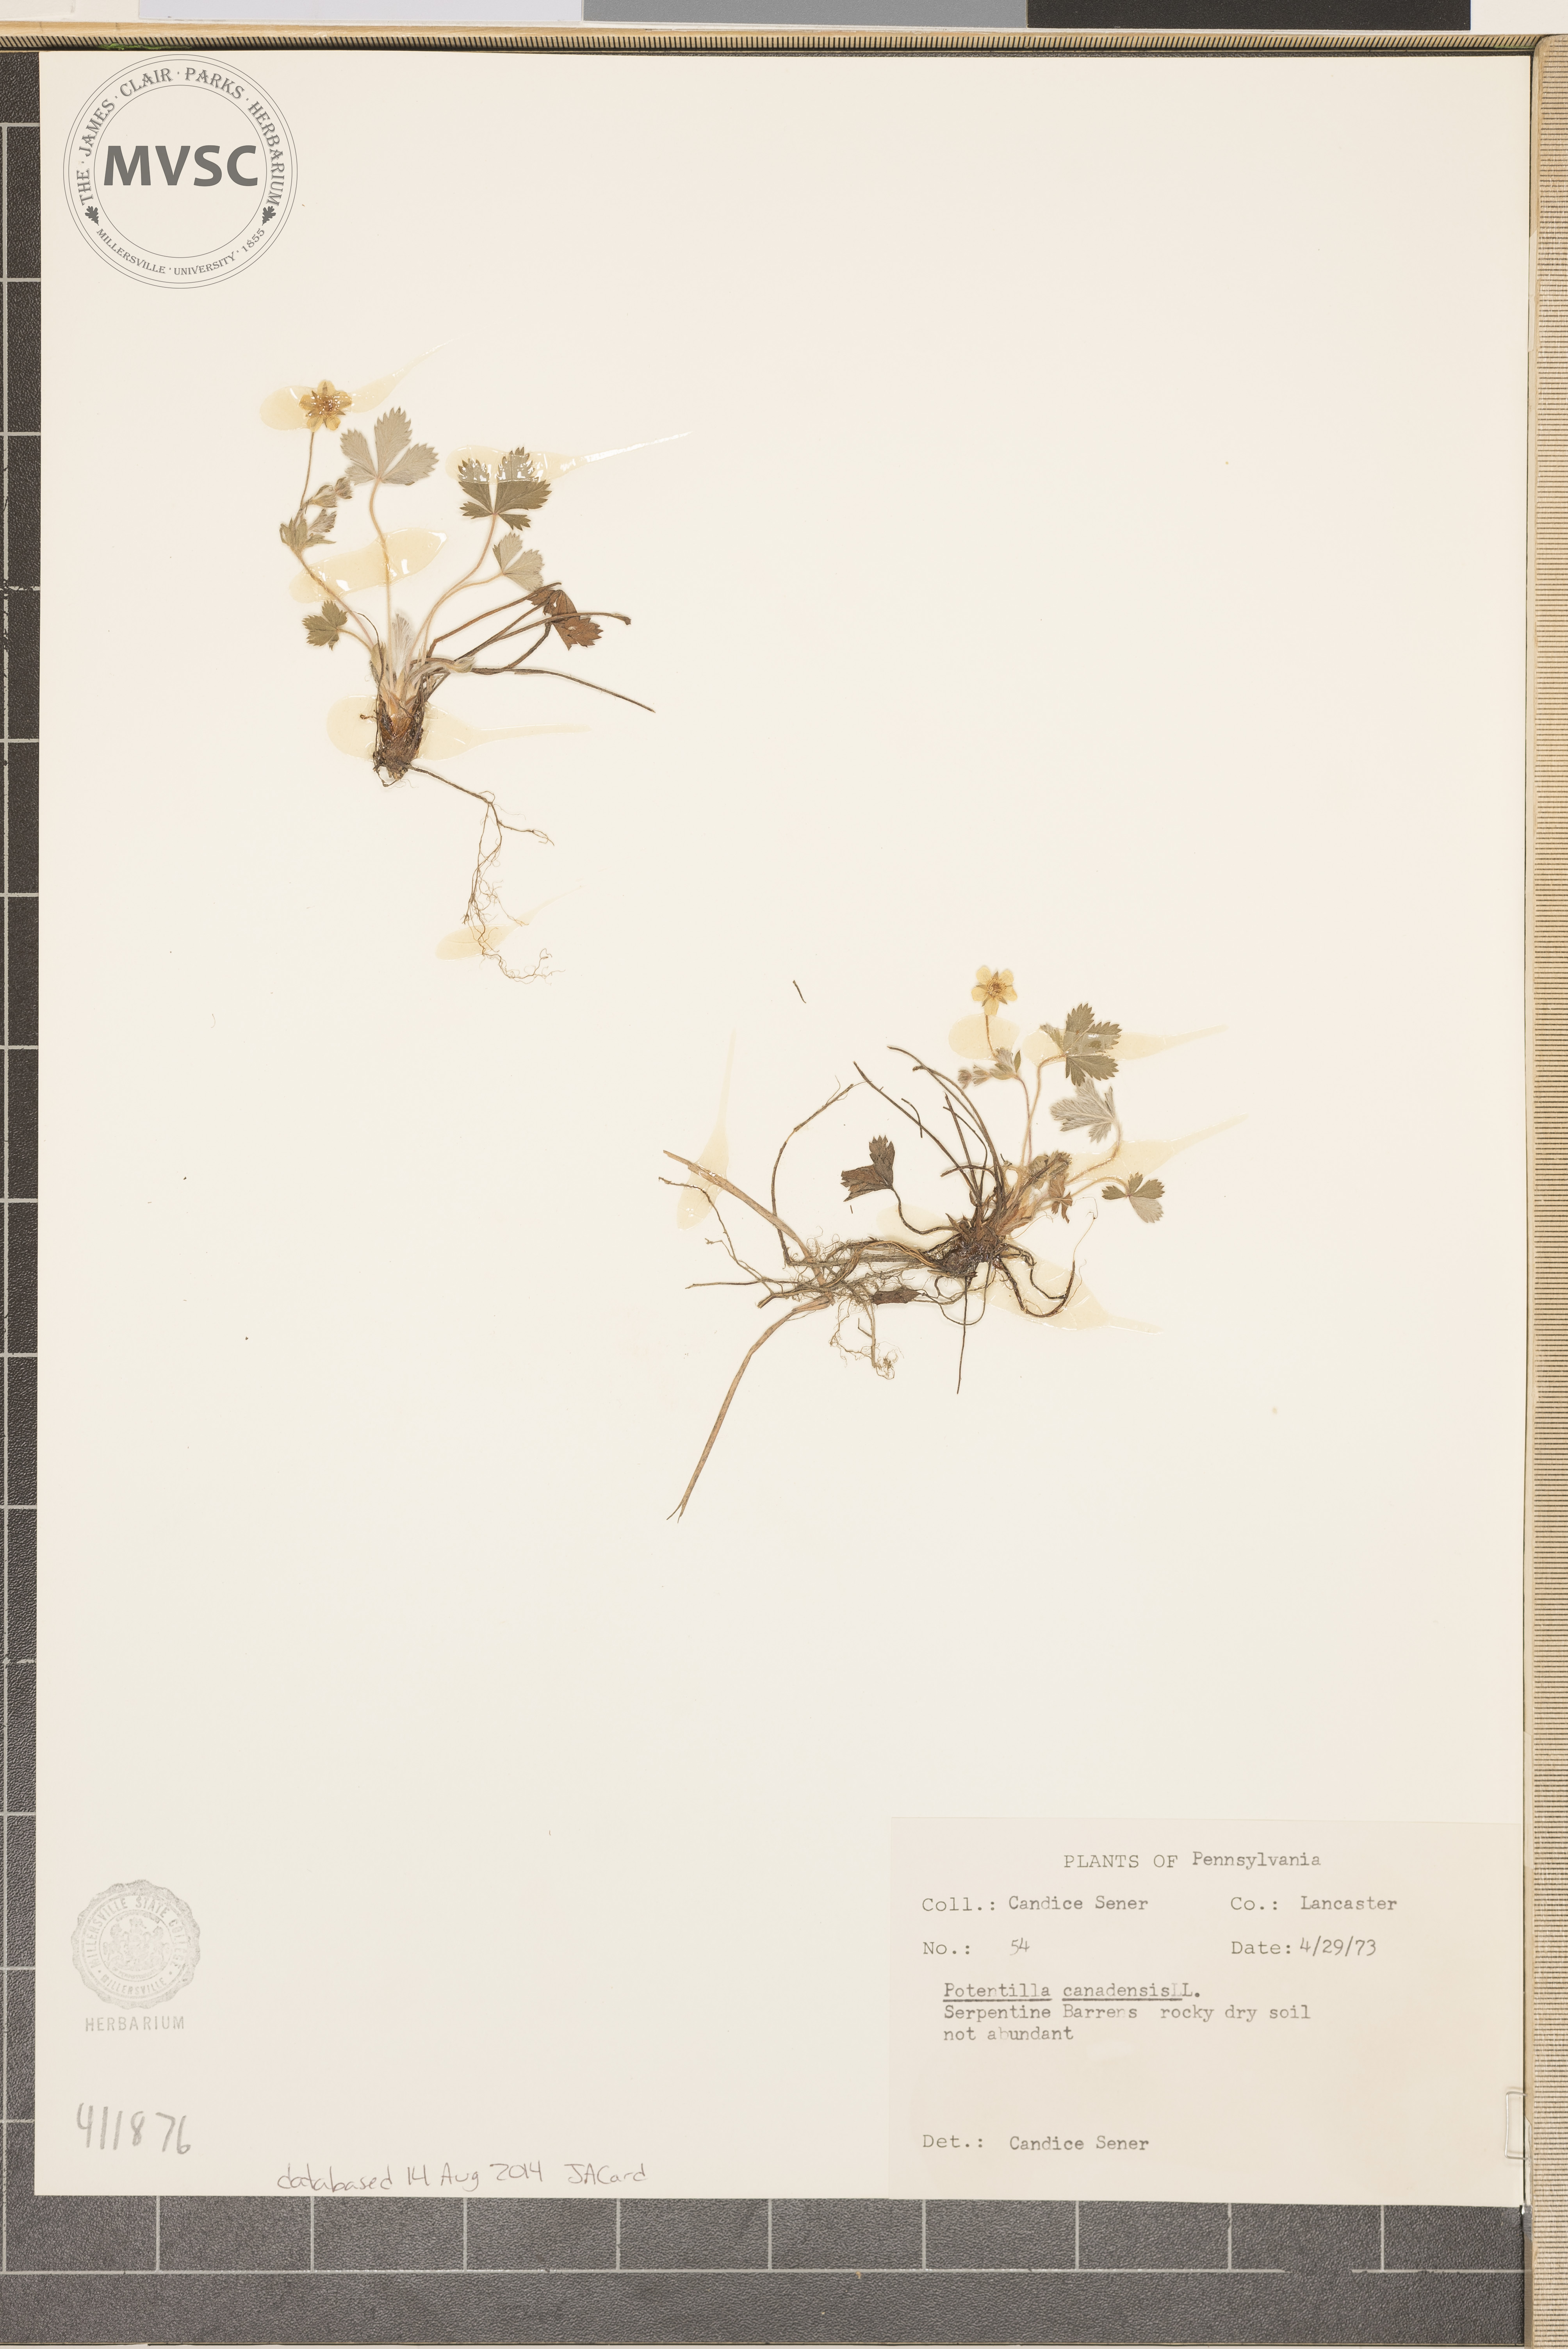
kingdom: Plantae
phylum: Tracheophyta
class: Magnoliopsida
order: Rosales
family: Rosaceae
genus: Potentilla
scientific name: Potentilla canadensis
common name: Canada cinquefoil
